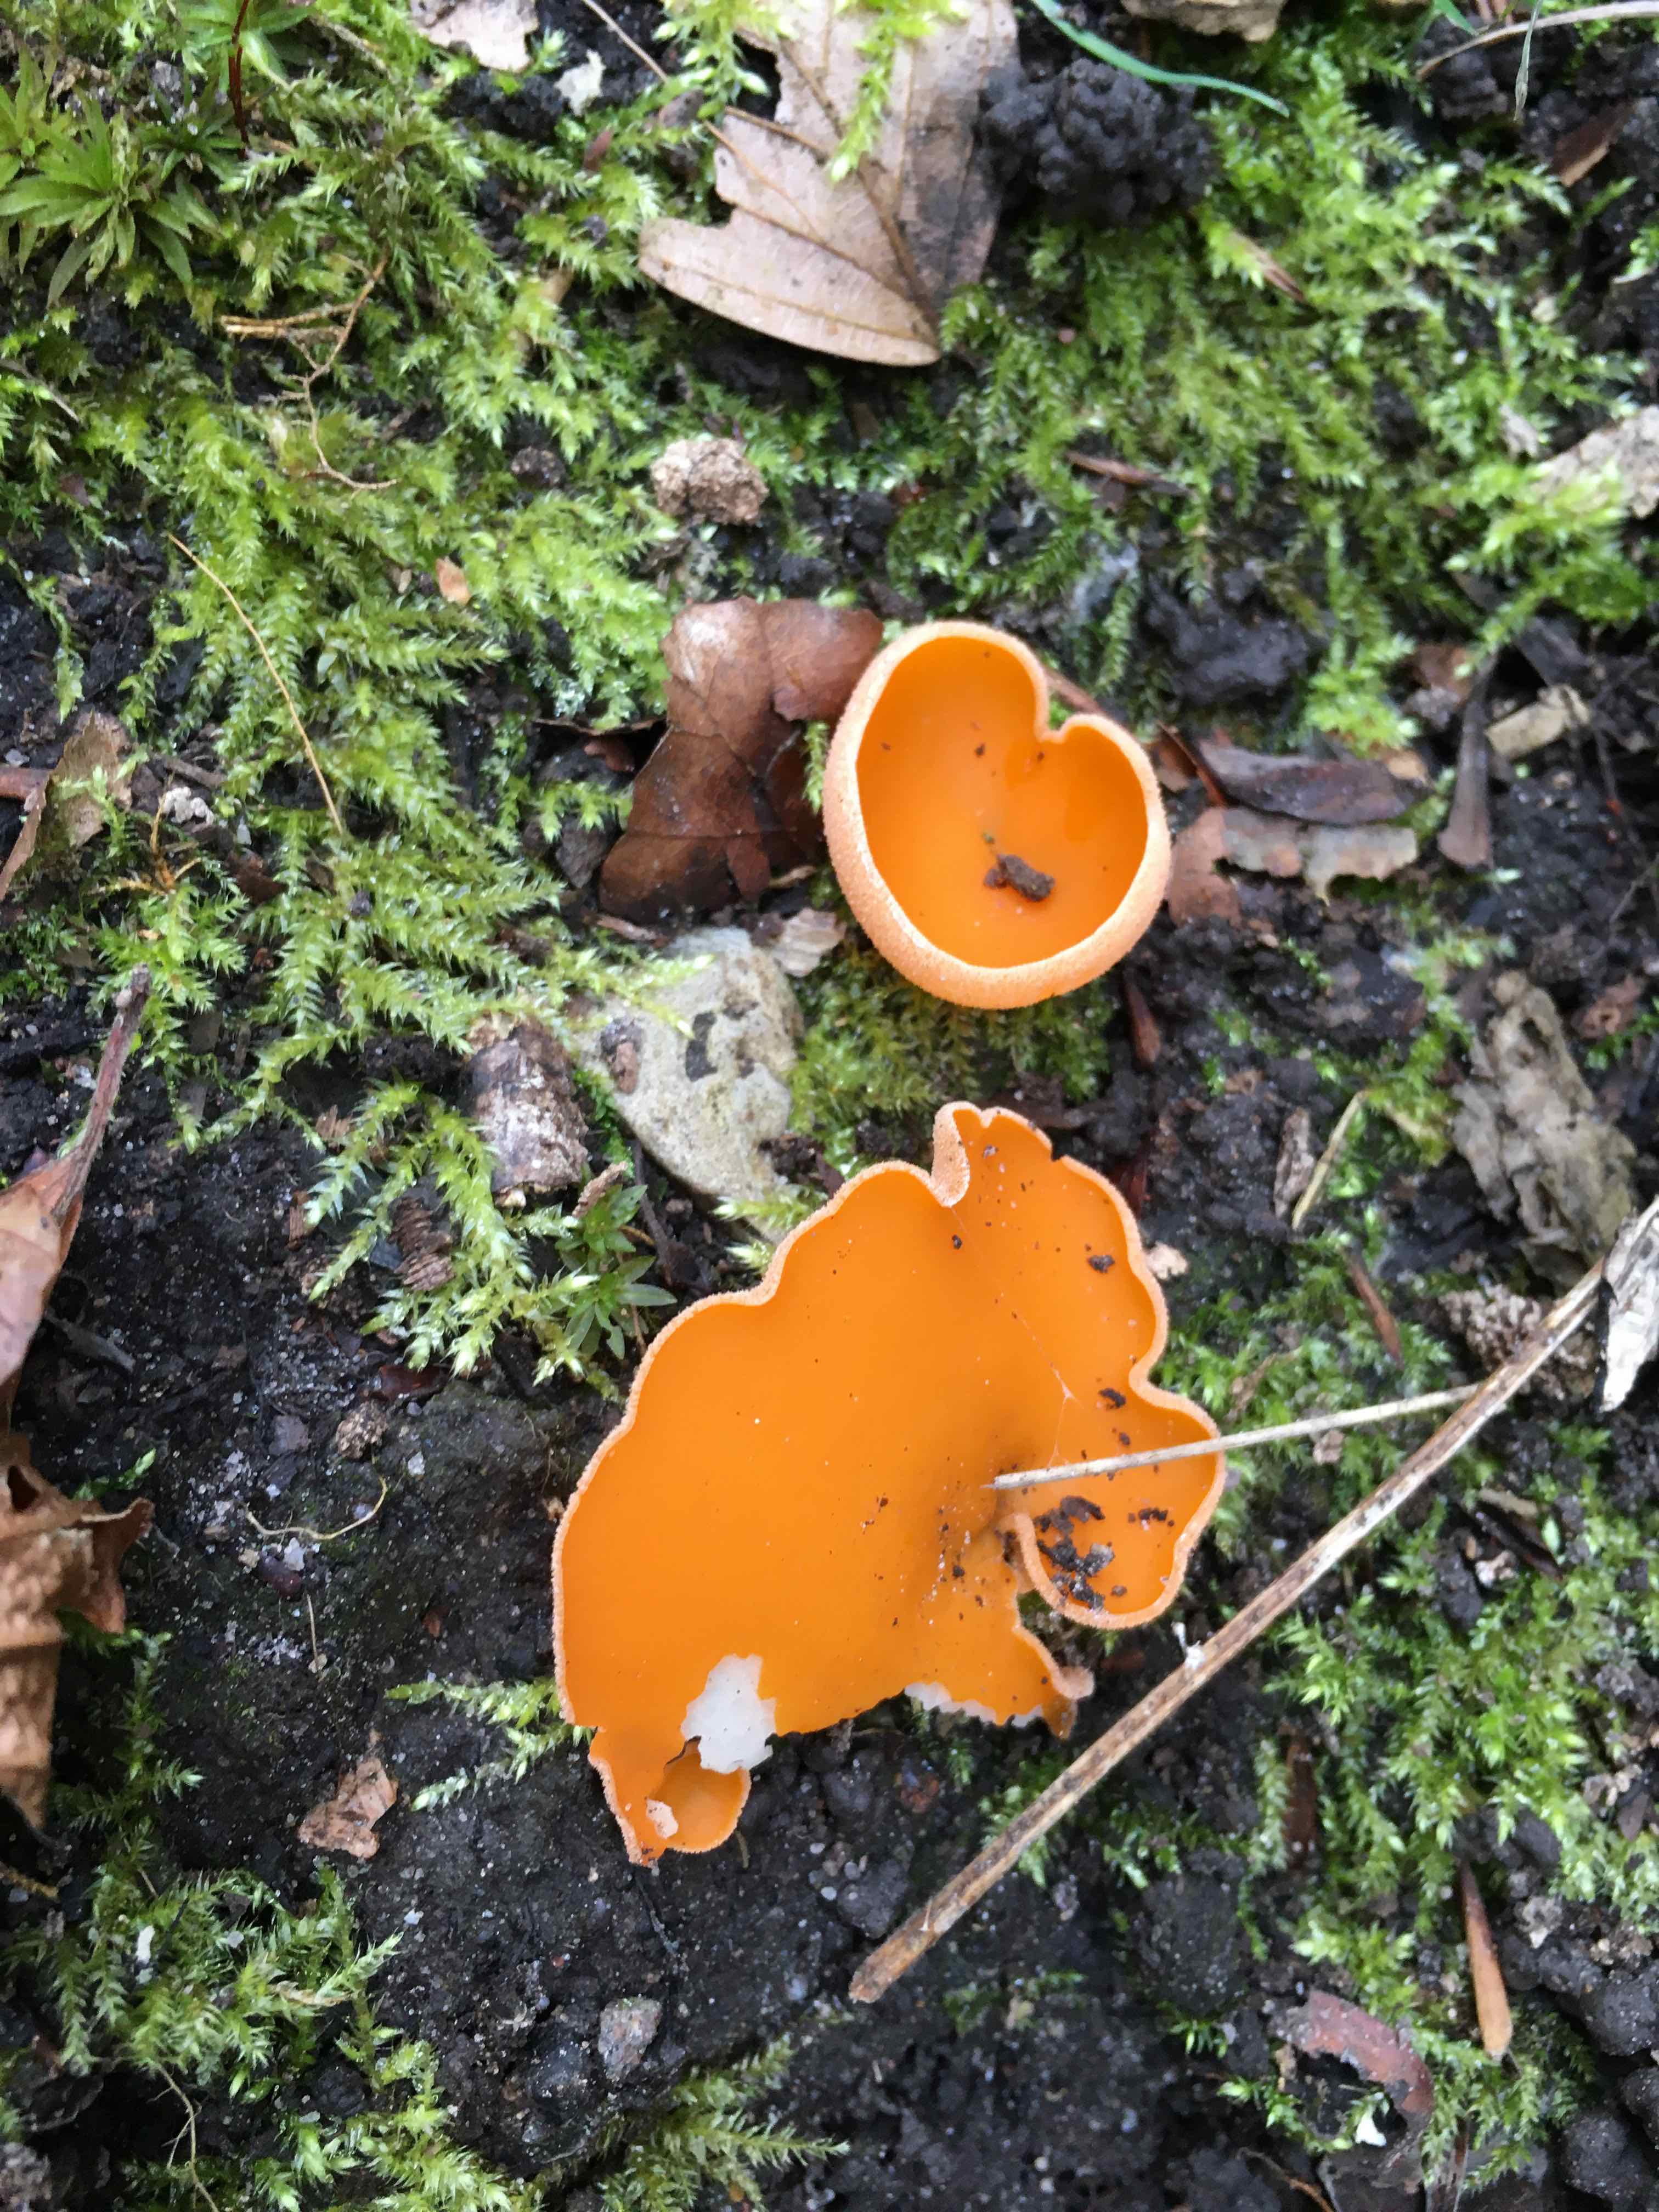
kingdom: Fungi
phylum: Ascomycota
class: Pezizomycetes
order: Pezizales
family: Pyronemataceae
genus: Aleuria
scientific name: Aleuria aurantia
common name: almindelig orangebæger
